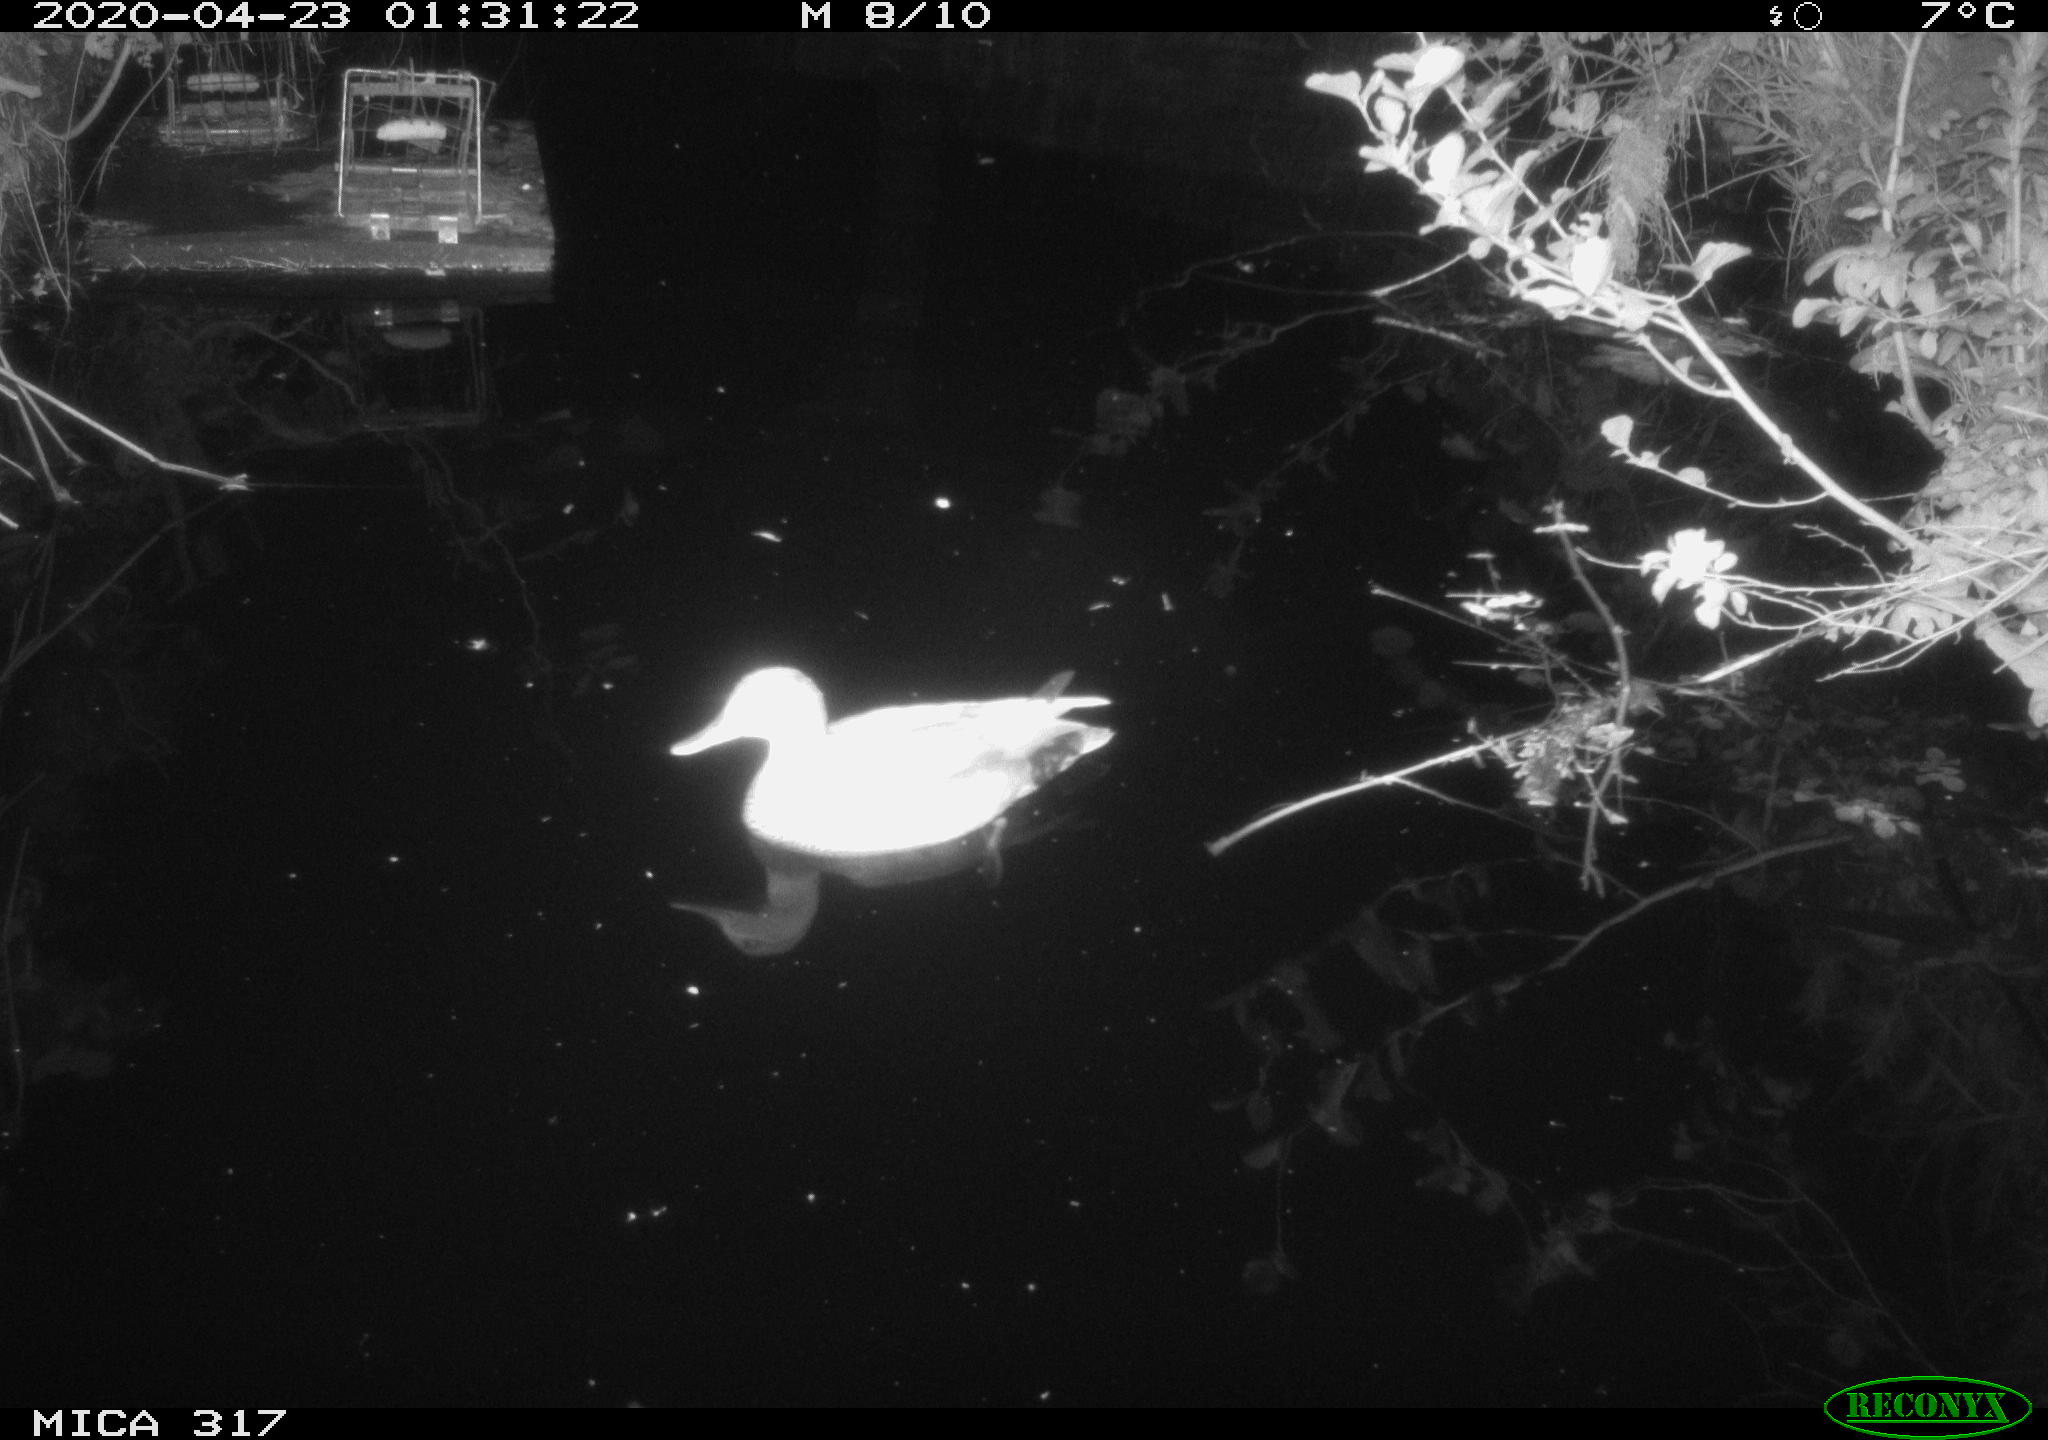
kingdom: Animalia
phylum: Chordata
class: Aves
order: Anseriformes
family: Anatidae
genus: Anas
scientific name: Anas platyrhynchos
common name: Mallard
